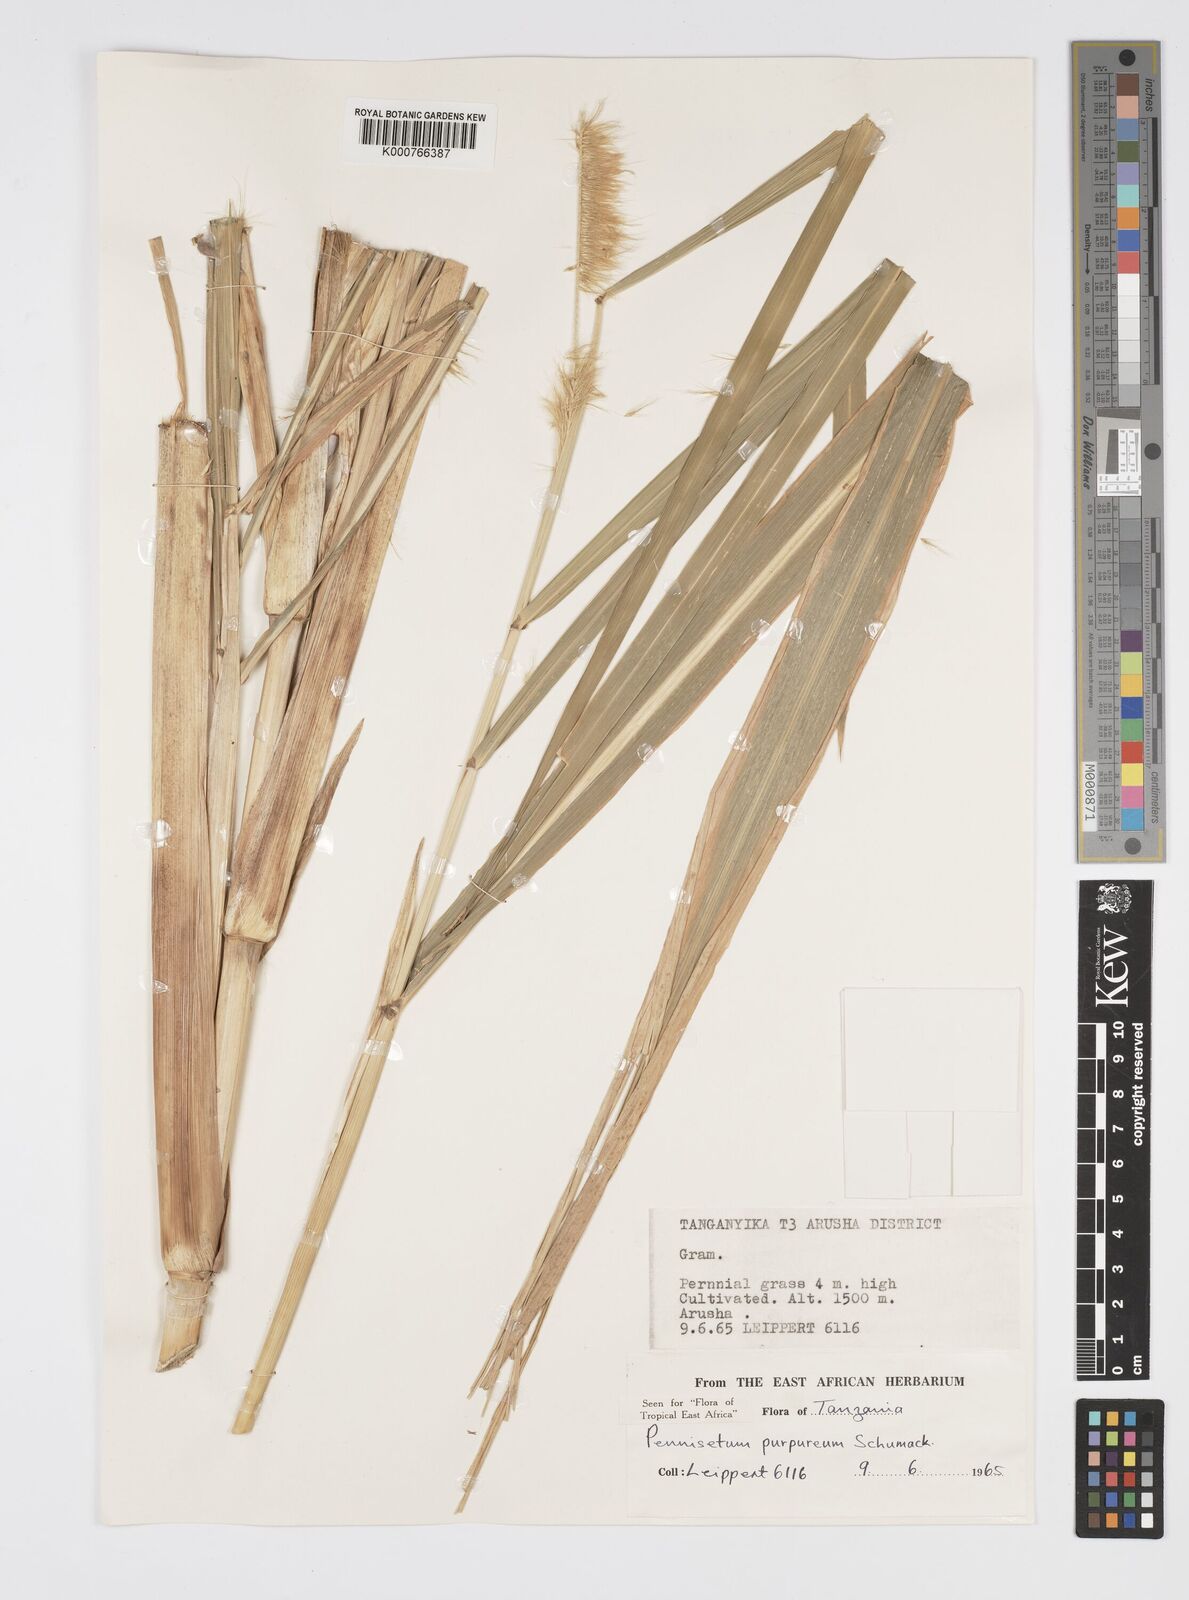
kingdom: Plantae
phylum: Tracheophyta
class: Liliopsida
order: Poales
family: Poaceae
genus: Cenchrus
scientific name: Cenchrus purpureus
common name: Elephant grass
